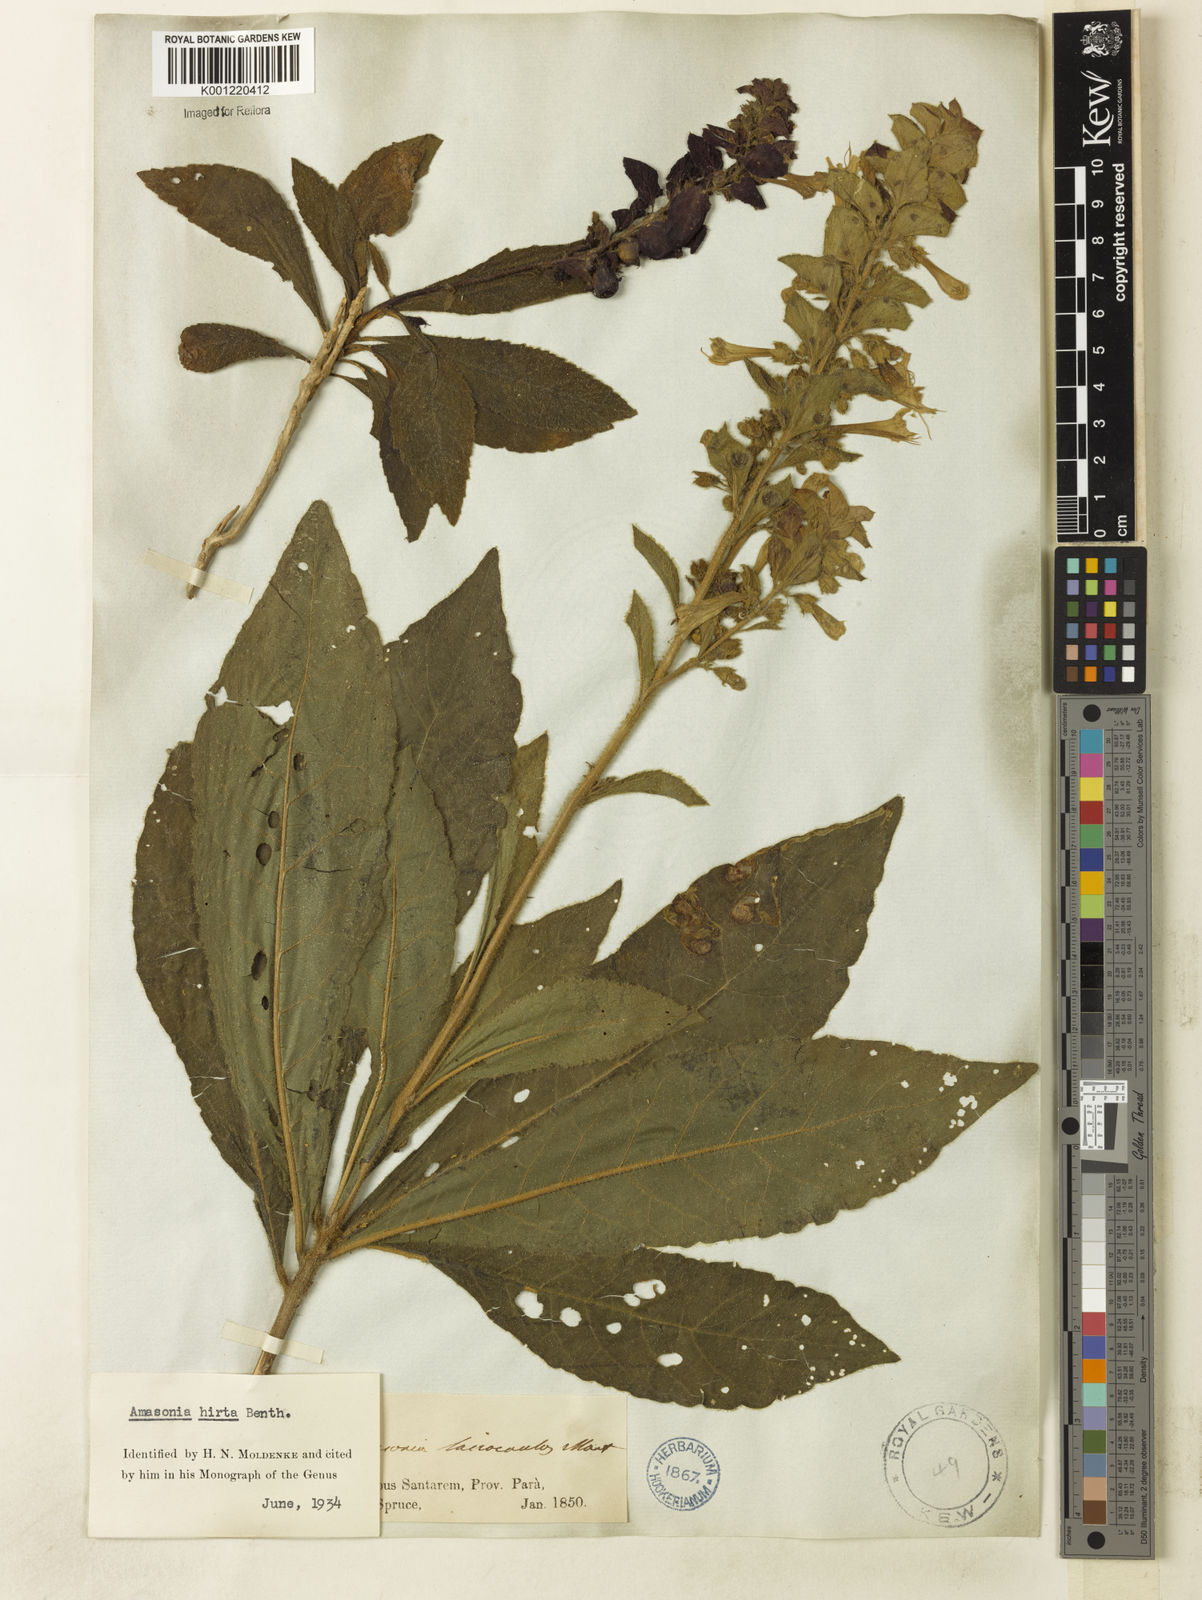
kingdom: Plantae
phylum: Tracheophyta
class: Magnoliopsida
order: Lamiales
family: Lamiaceae
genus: Amasonia
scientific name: Amasonia hirta
